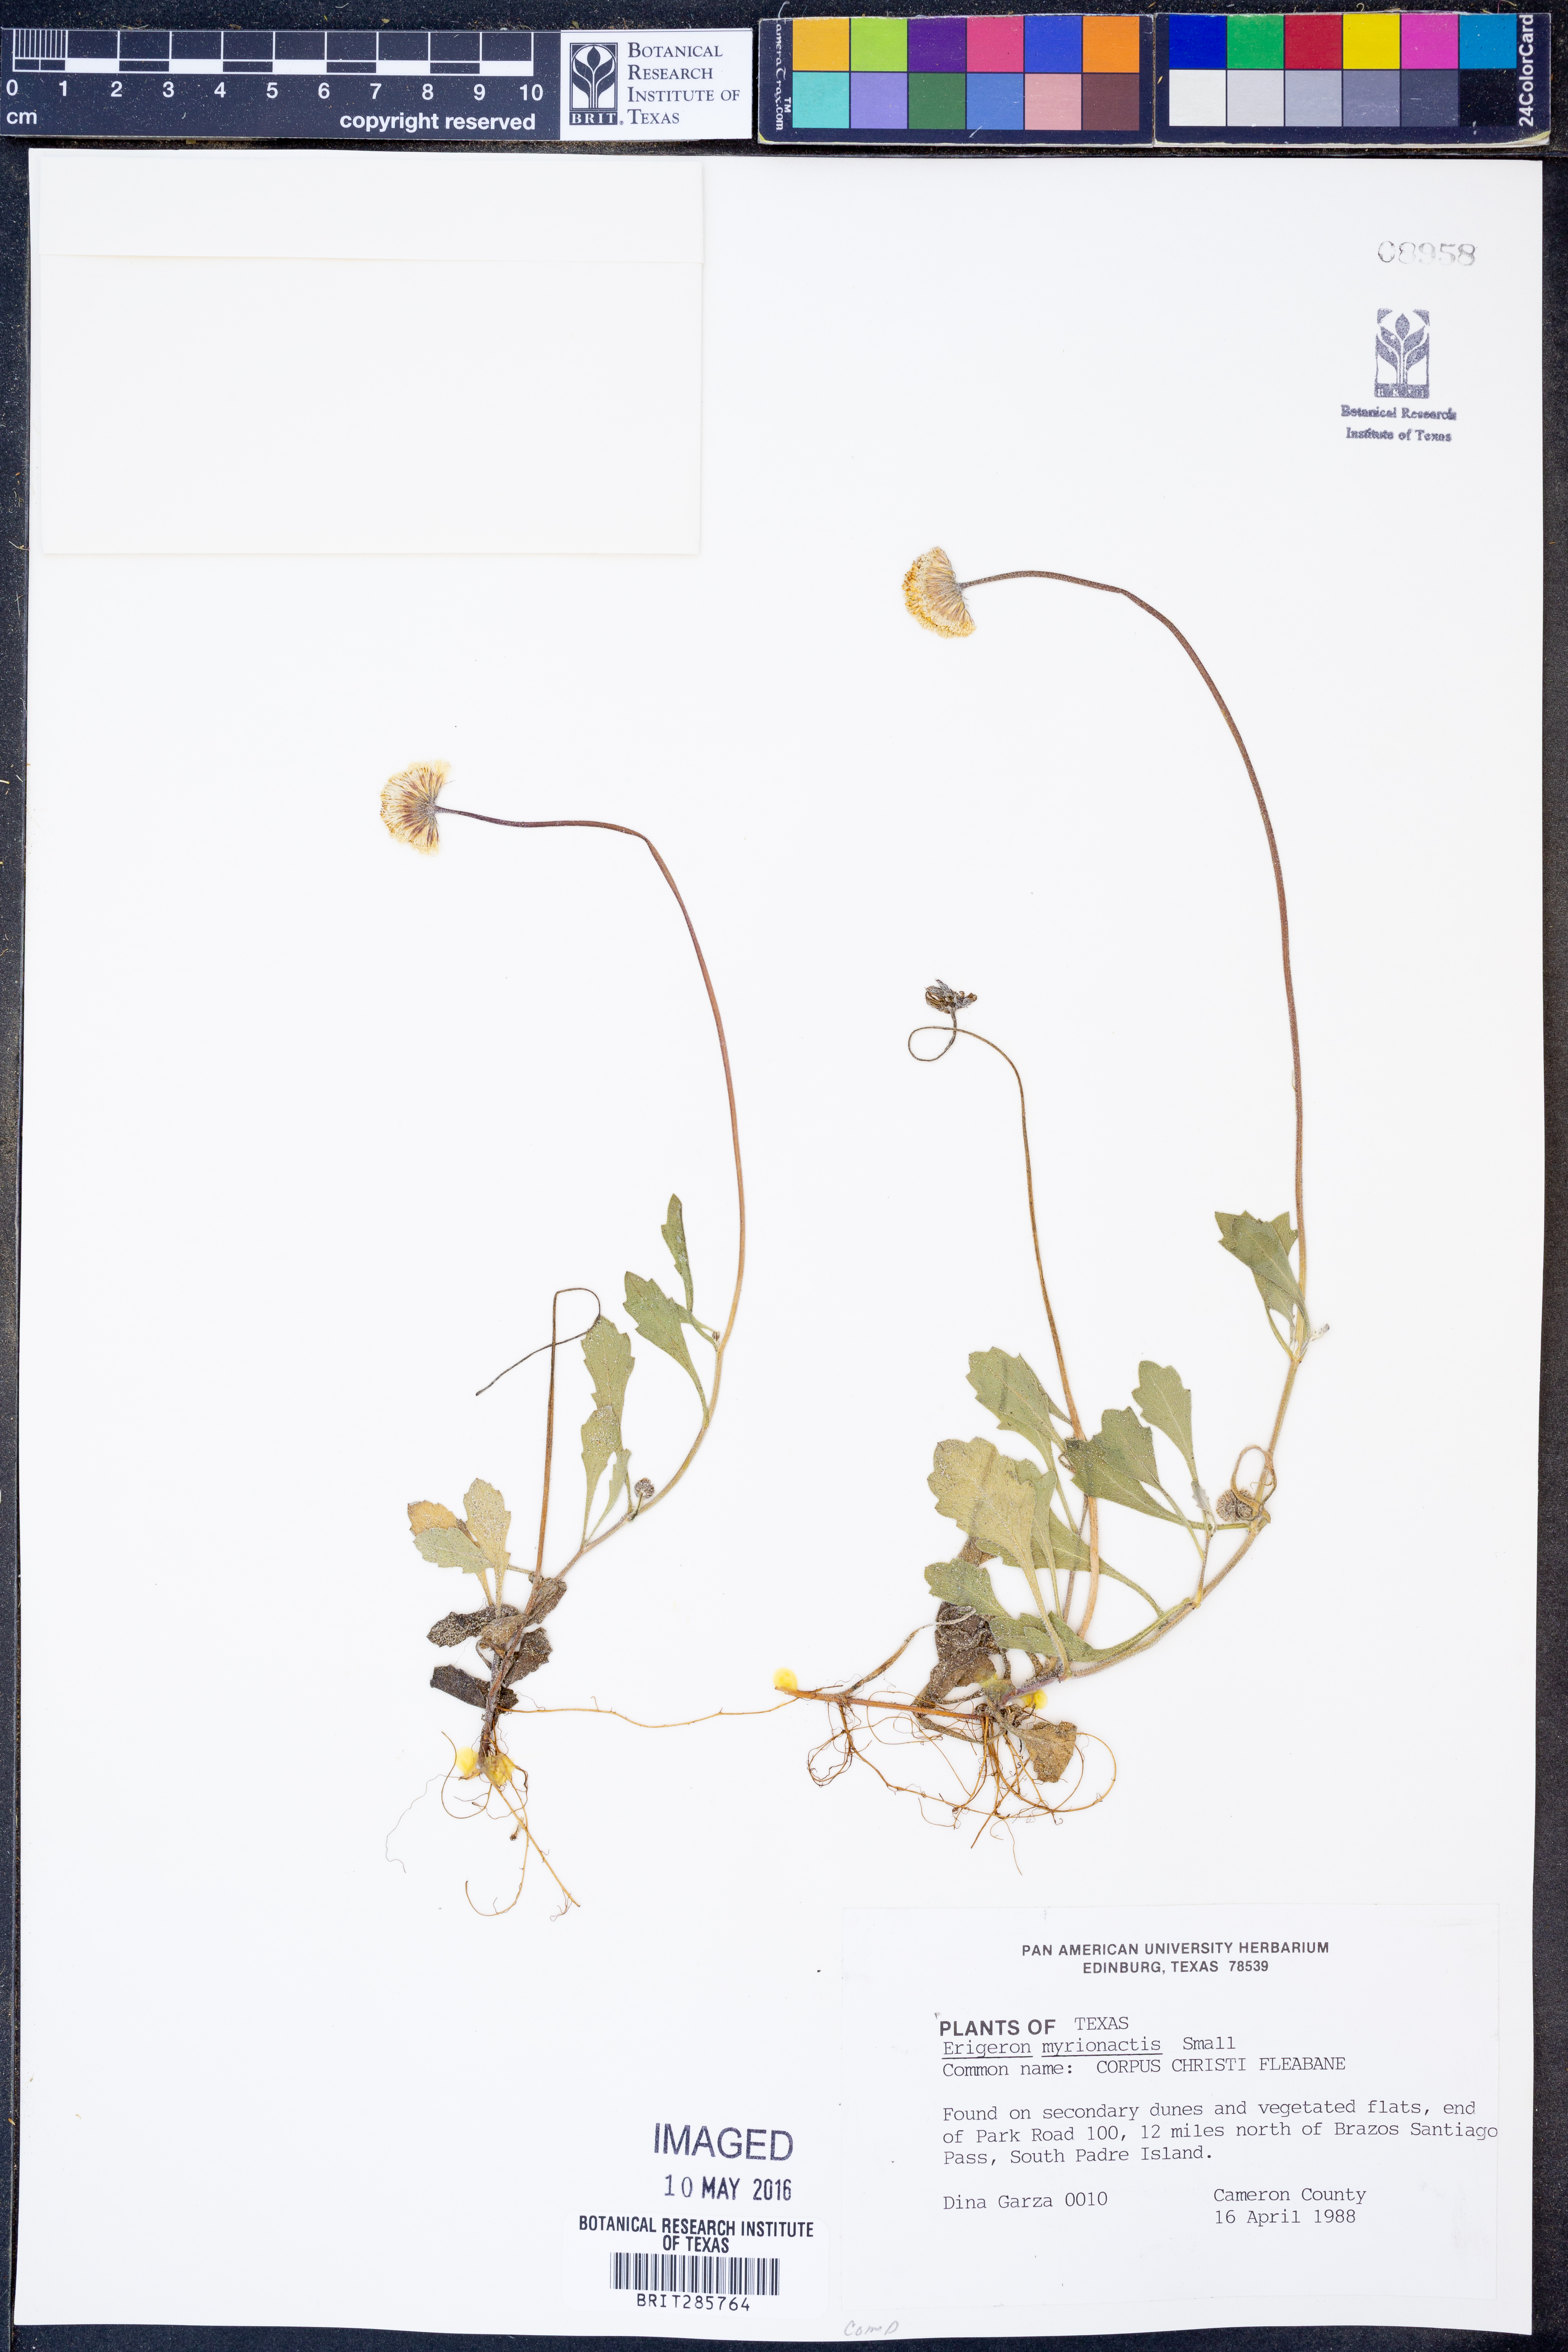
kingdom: Plantae
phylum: Tracheophyta
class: Magnoliopsida
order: Asterales
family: Asteraceae
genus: Erigeron
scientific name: Erigeron procumbens
